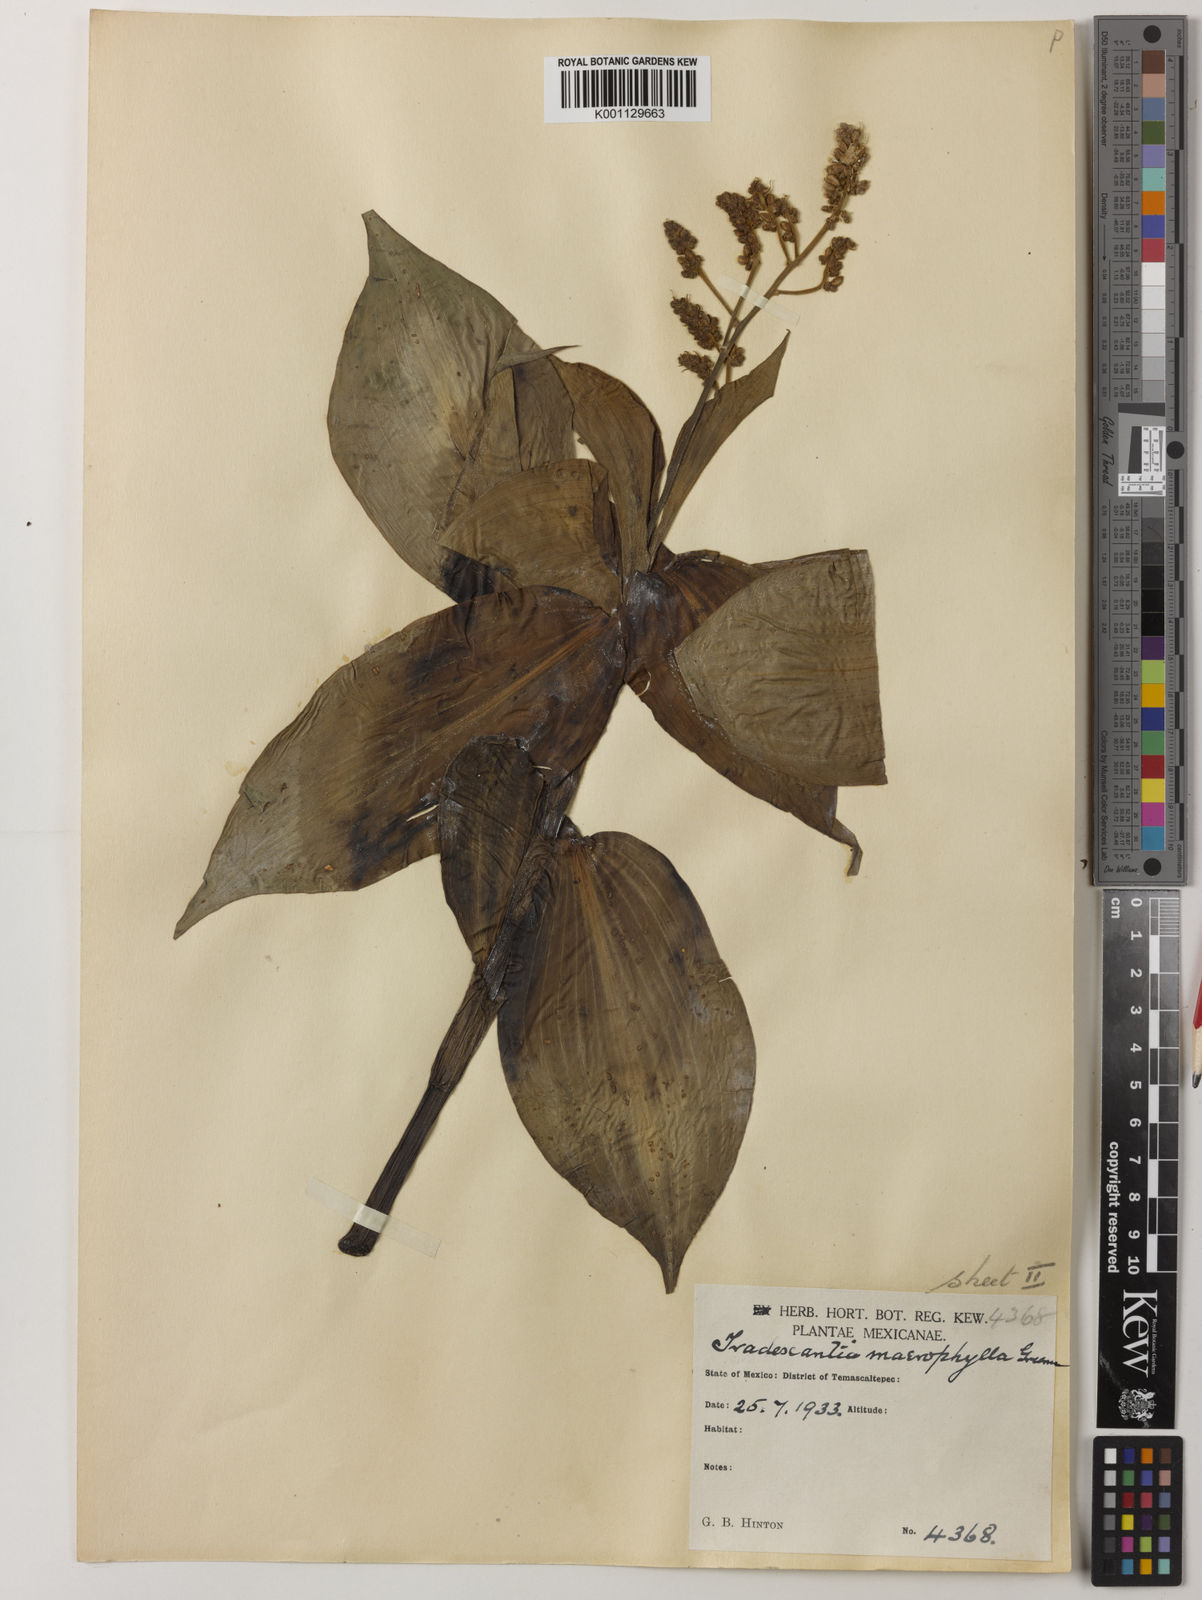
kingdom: Plantae
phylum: Tracheophyta
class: Liliopsida
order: Commelinales
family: Commelinaceae
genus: Thyrsanthemum
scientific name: Thyrsanthemum longifolium
